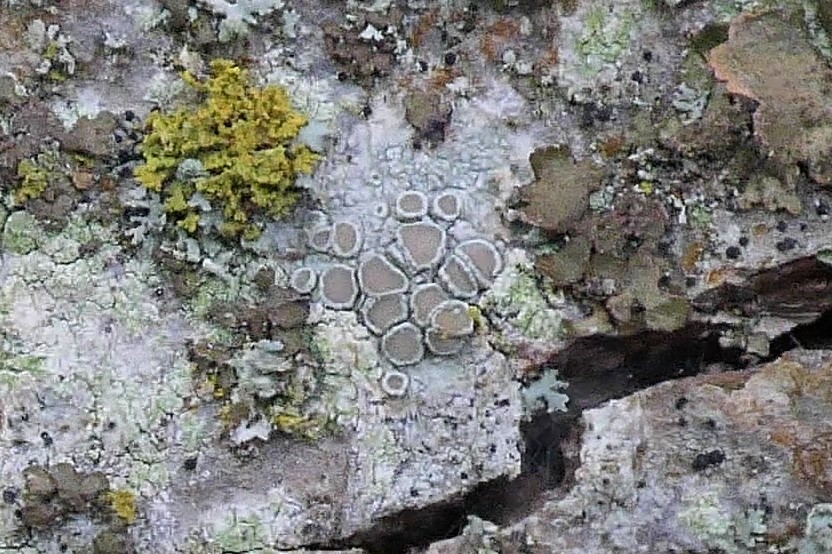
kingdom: Fungi
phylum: Ascomycota
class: Lecanoromycetes
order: Lecanorales
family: Lecanoraceae
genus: Lecanora
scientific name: Lecanora chlarotera
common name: brun kantskivelav
